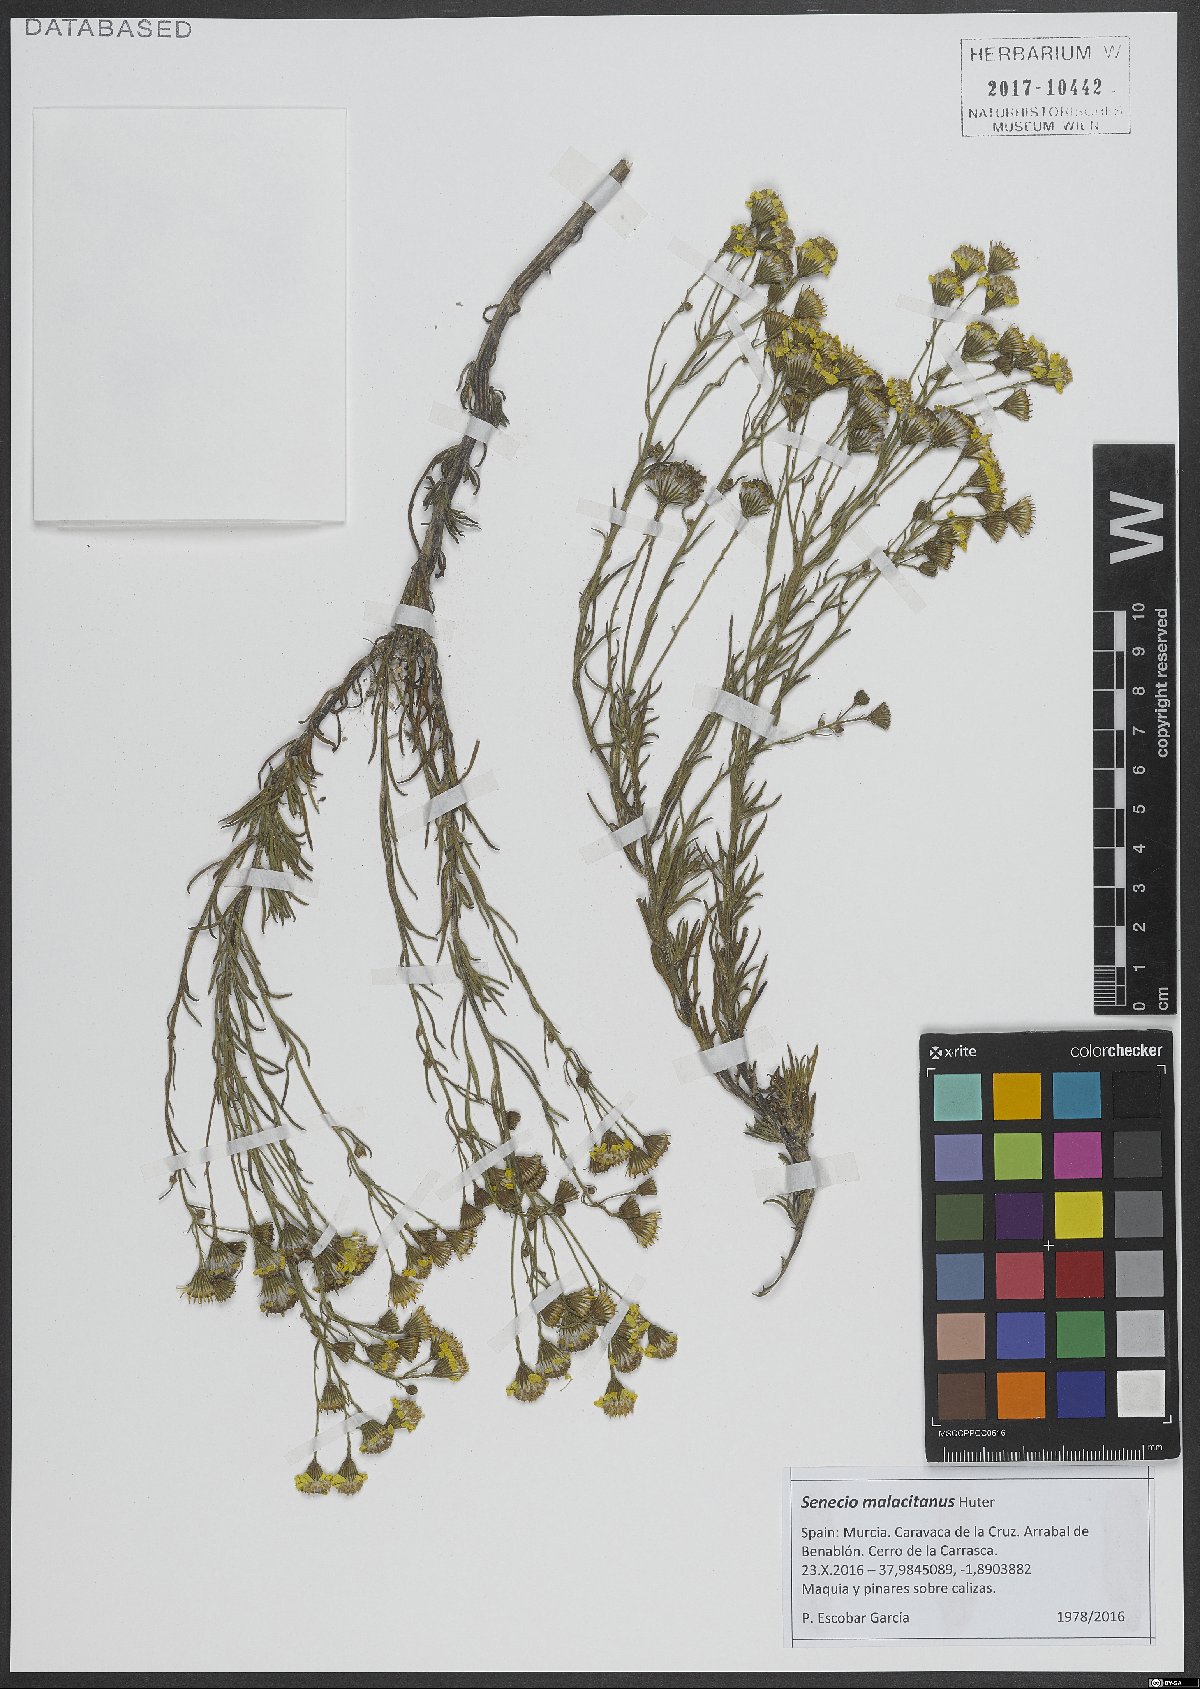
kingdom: Plantae
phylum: Tracheophyta
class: Magnoliopsida
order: Asterales
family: Asteraceae
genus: Senecio
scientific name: Senecio malacitanus
